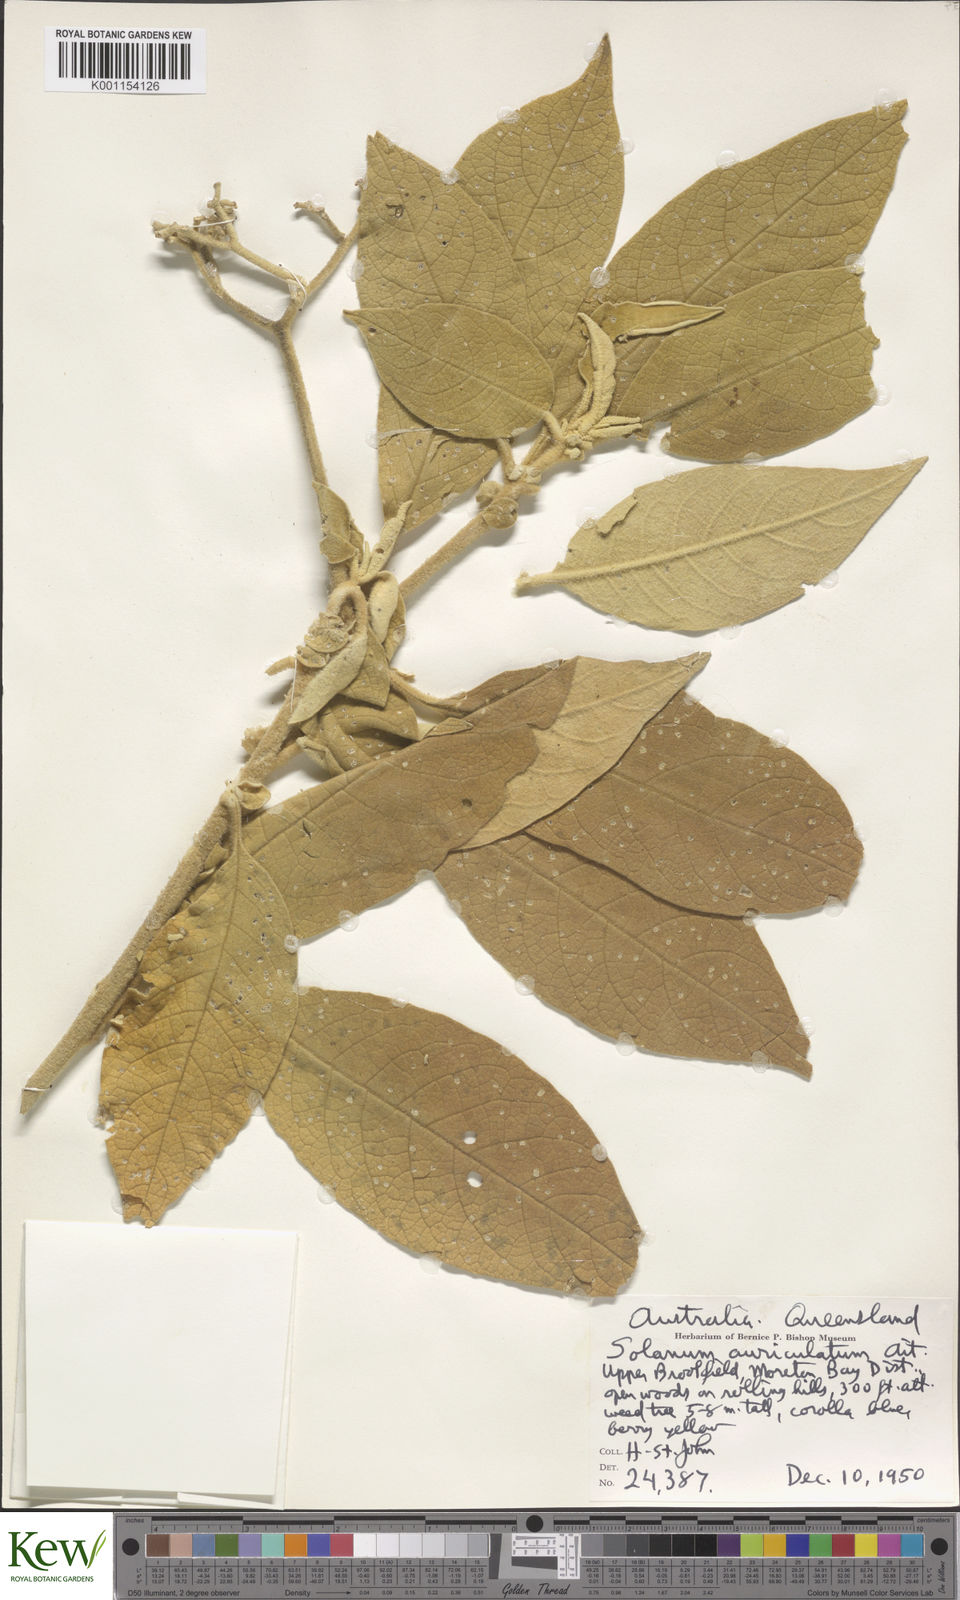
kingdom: Plantae
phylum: Tracheophyta
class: Magnoliopsida
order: Solanales
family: Solanaceae
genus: Solanum
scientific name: Solanum mauritianum
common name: Earleaf nightshade
